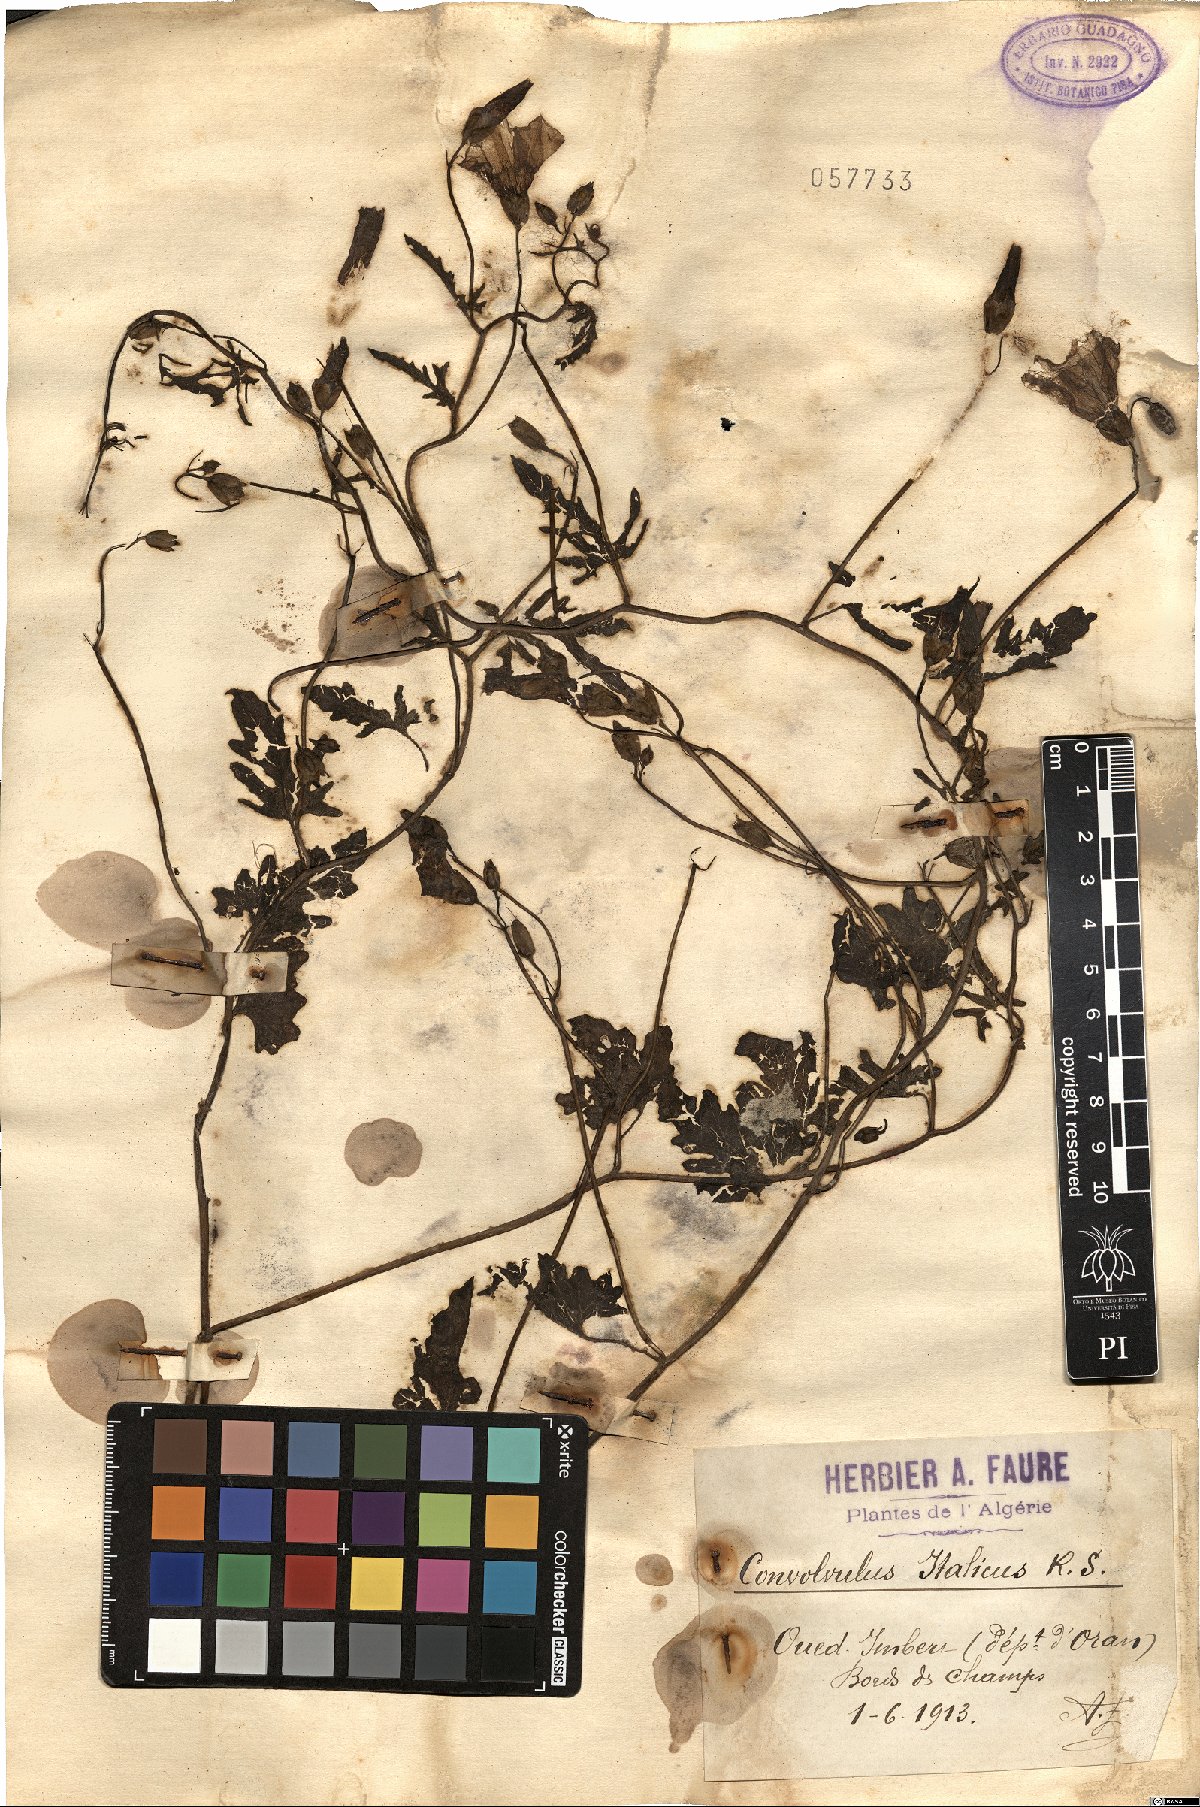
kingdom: Plantae
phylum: Tracheophyta
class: Magnoliopsida
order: Solanales
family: Convolvulaceae
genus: Convolvulus
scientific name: Convolvulus althaeoides
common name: Mallow bindweed
